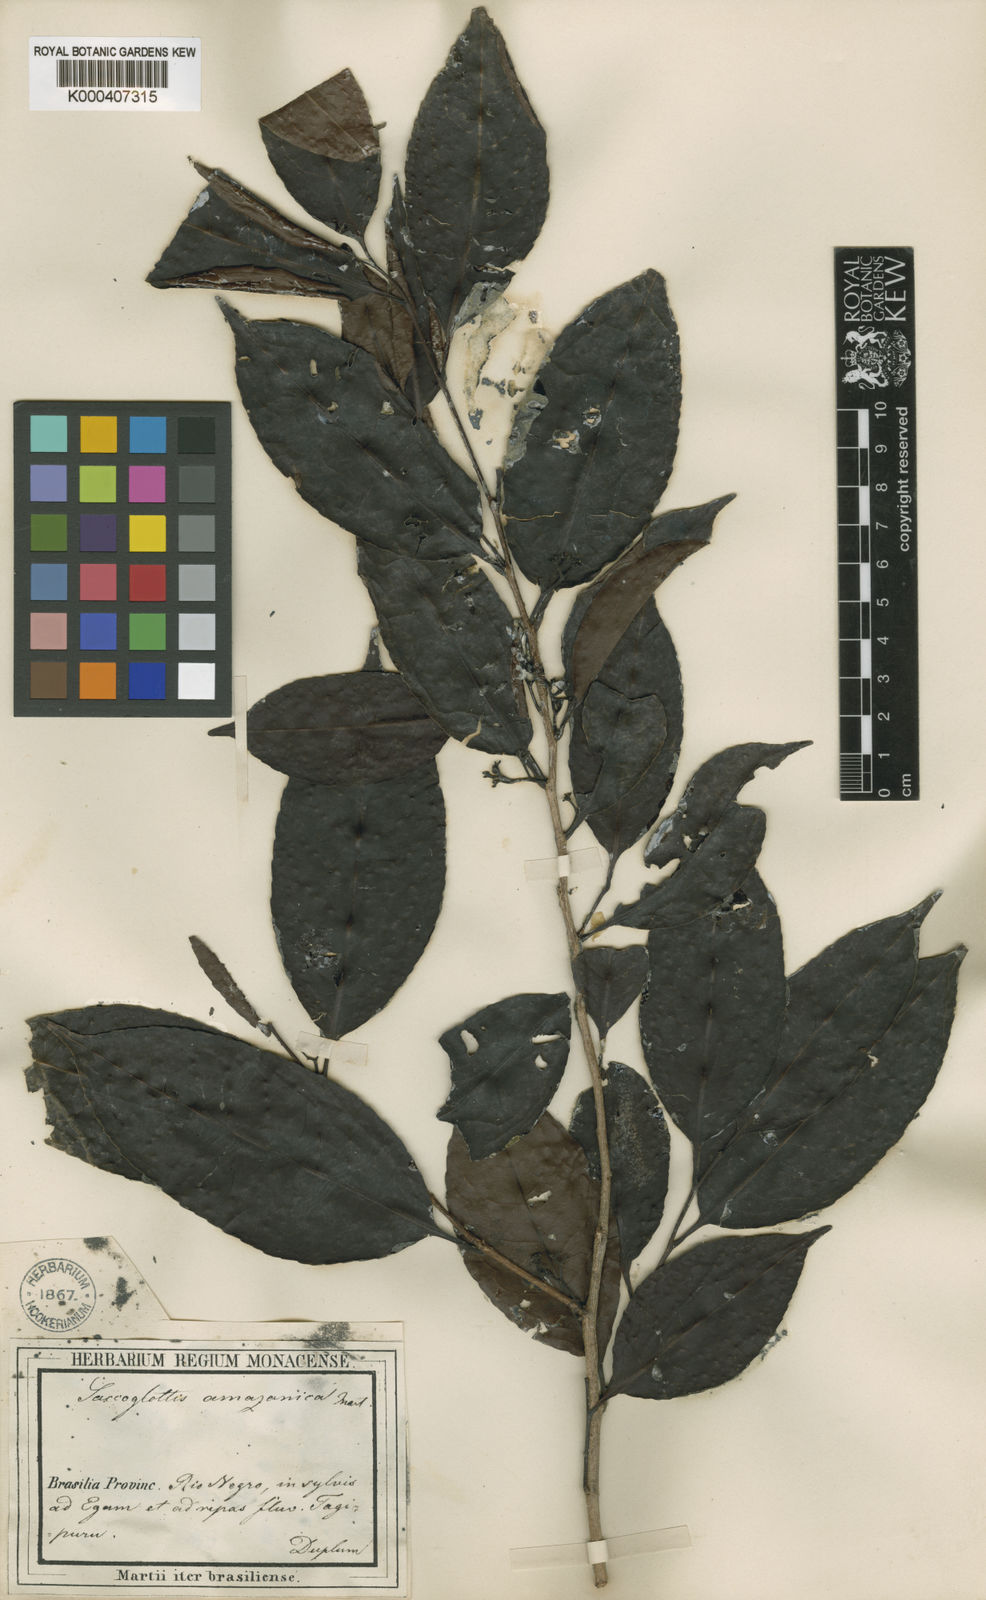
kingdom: Plantae
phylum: Tracheophyta
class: Magnoliopsida
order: Malpighiales
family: Humiriaceae
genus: Sacoglottis
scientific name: Sacoglottis amazonica
